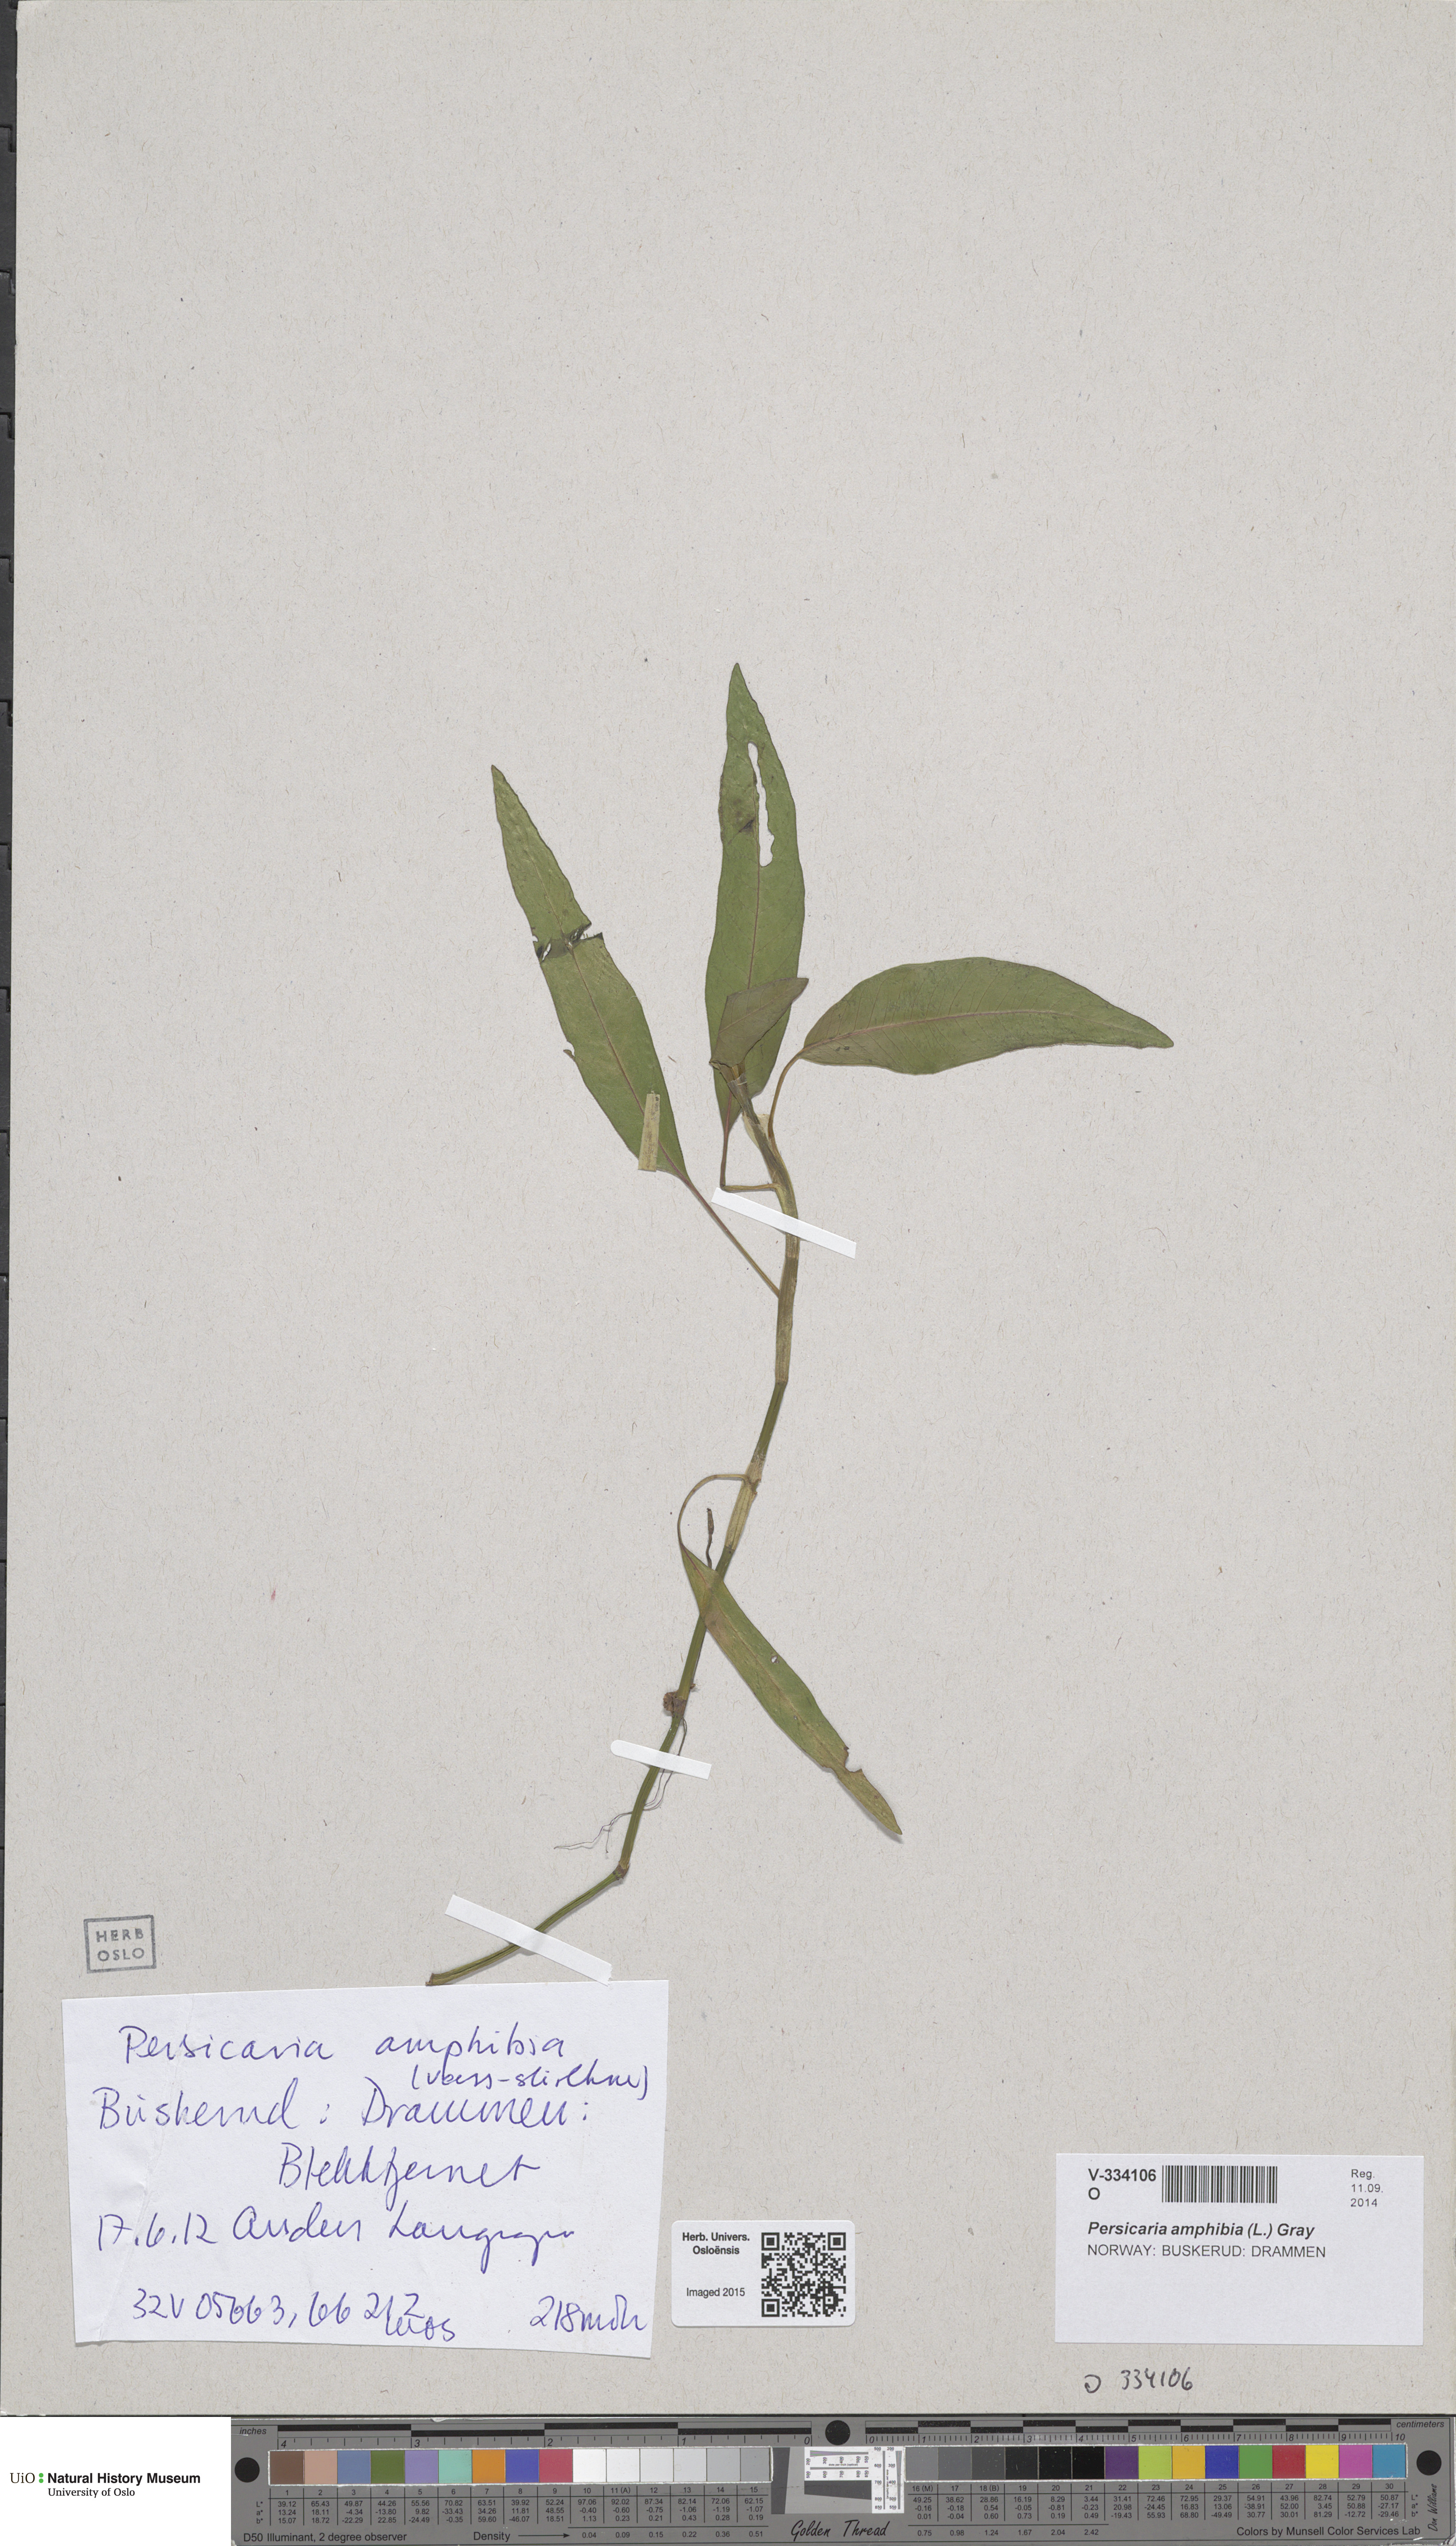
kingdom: Plantae
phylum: Tracheophyta
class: Magnoliopsida
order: Caryophyllales
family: Polygonaceae
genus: Persicaria
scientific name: Persicaria amphibia
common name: Amphibious bistort
